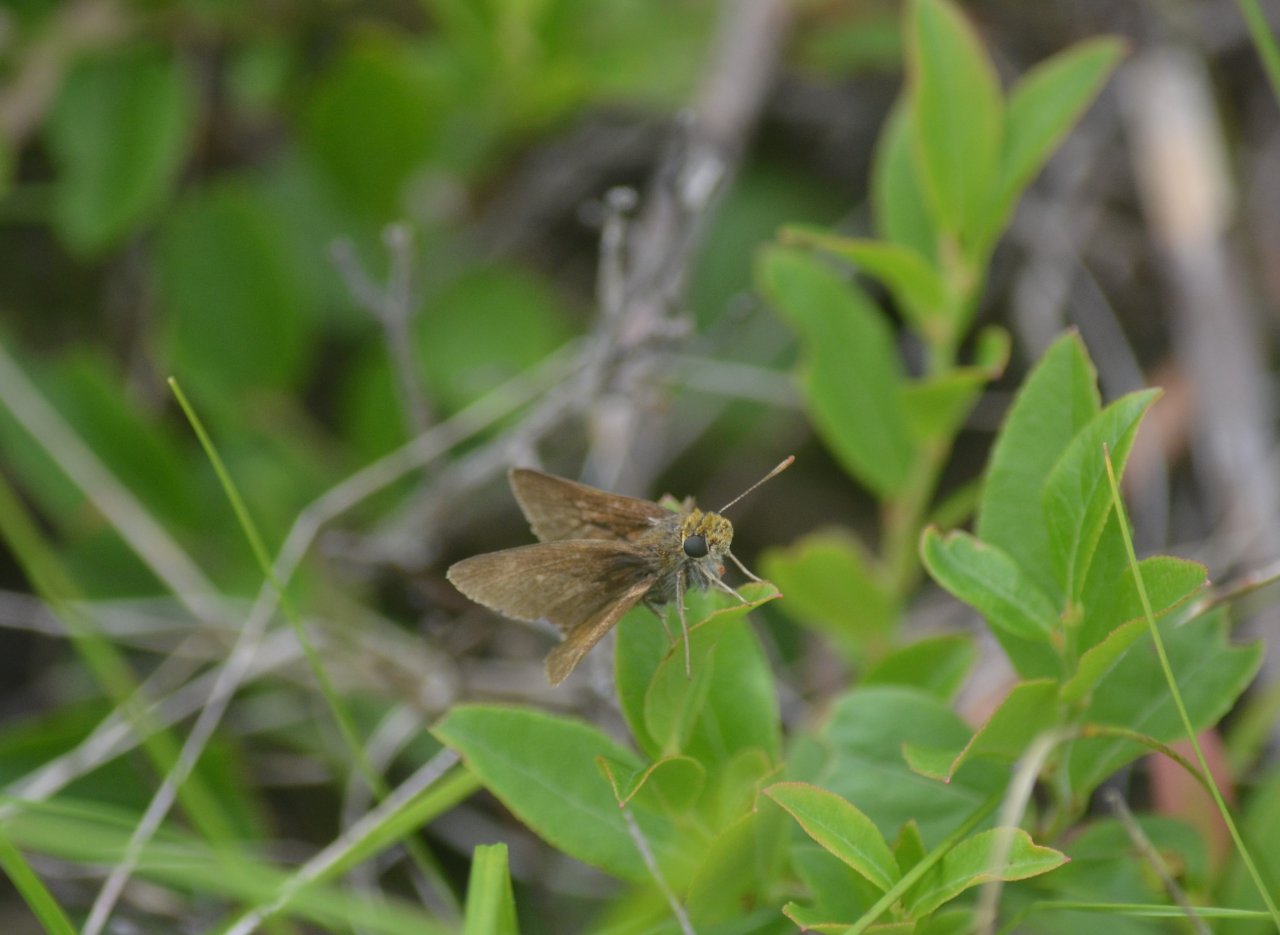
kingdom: Animalia
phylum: Arthropoda
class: Insecta
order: Lepidoptera
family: Hesperiidae
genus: Euphyes
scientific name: Euphyes vestris
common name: Dun Skipper
